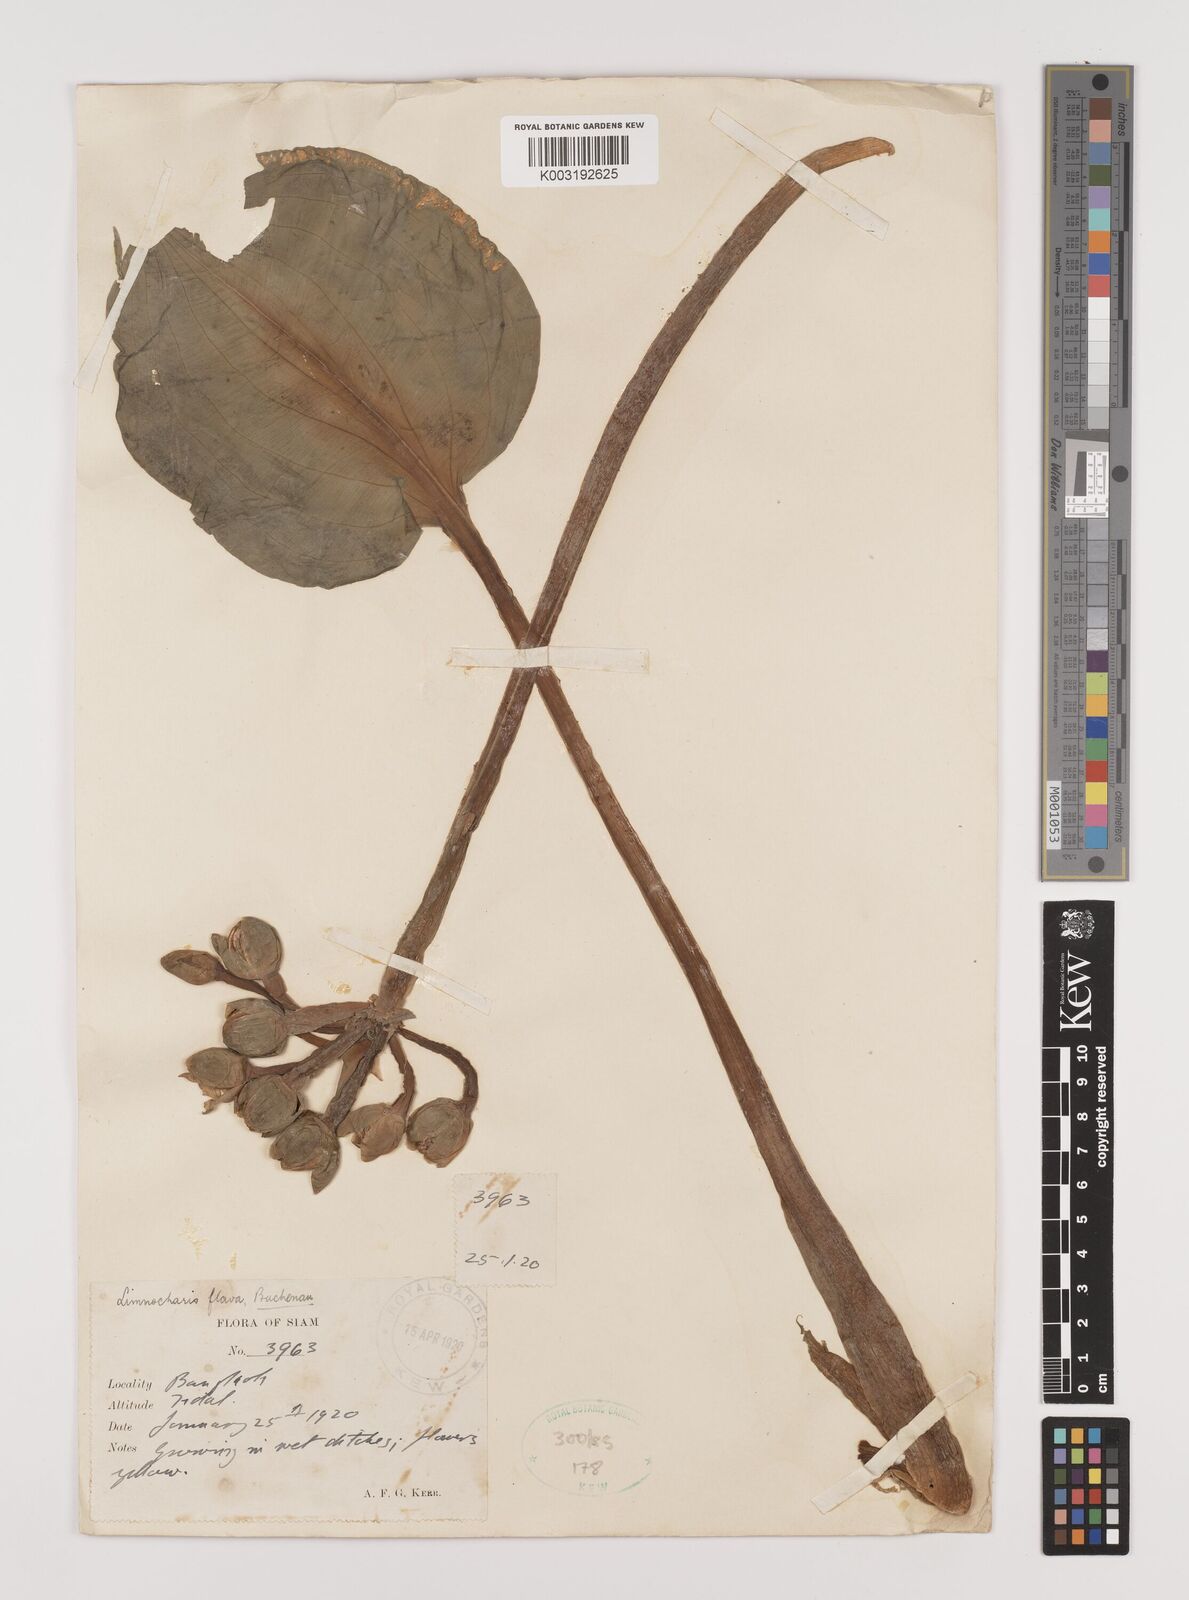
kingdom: Plantae
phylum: Tracheophyta
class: Liliopsida
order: Alismatales
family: Alismataceae
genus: Limnocharis
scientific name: Limnocharis flava
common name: Sawah-flower-rush
